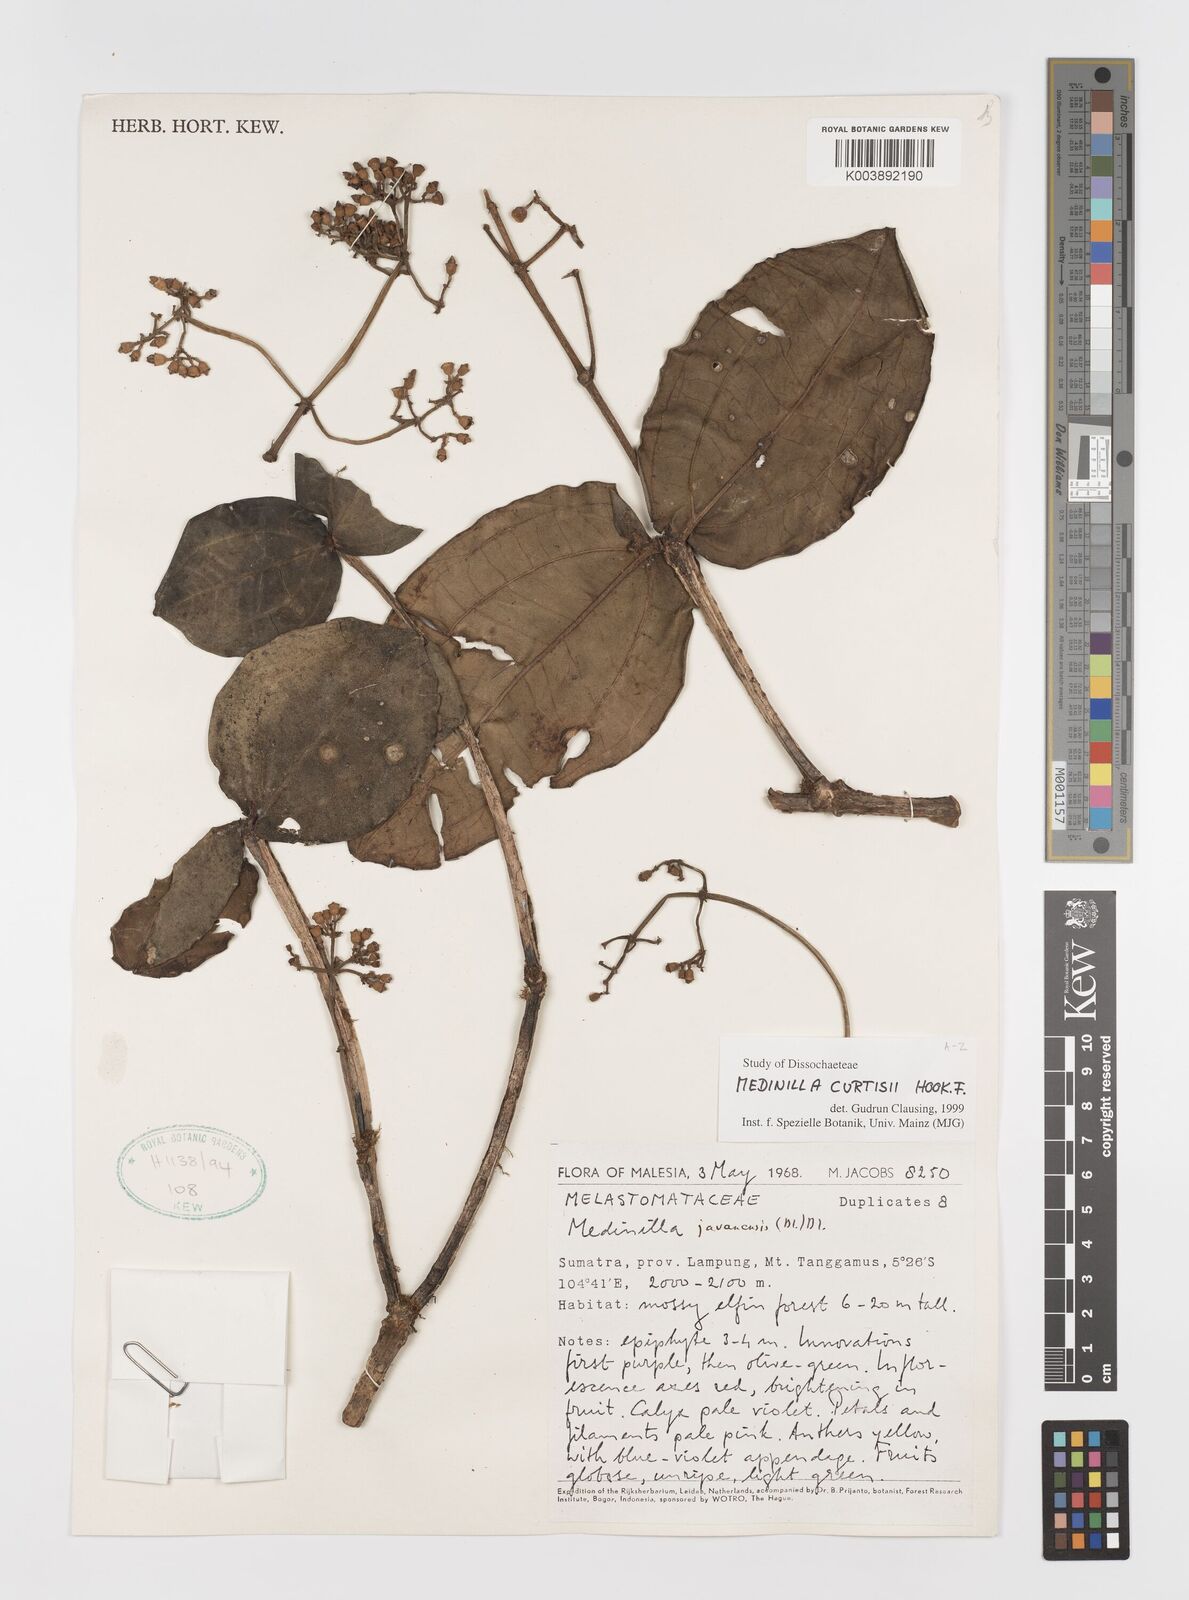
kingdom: Plantae
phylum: Tracheophyta
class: Magnoliopsida
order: Myrtales
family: Melastomataceae
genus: Medinilla
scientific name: Medinilla curtisii
